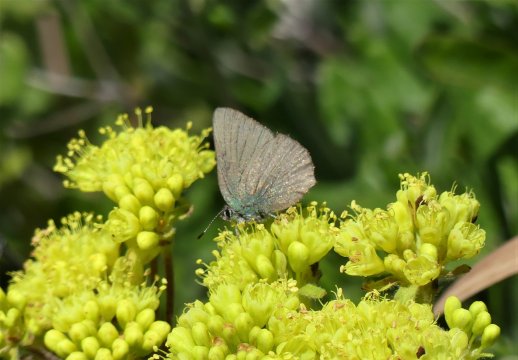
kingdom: Animalia
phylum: Arthropoda
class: Insecta
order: Lepidoptera
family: Lycaenidae
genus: Thecla
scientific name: Thecla sheridanii
